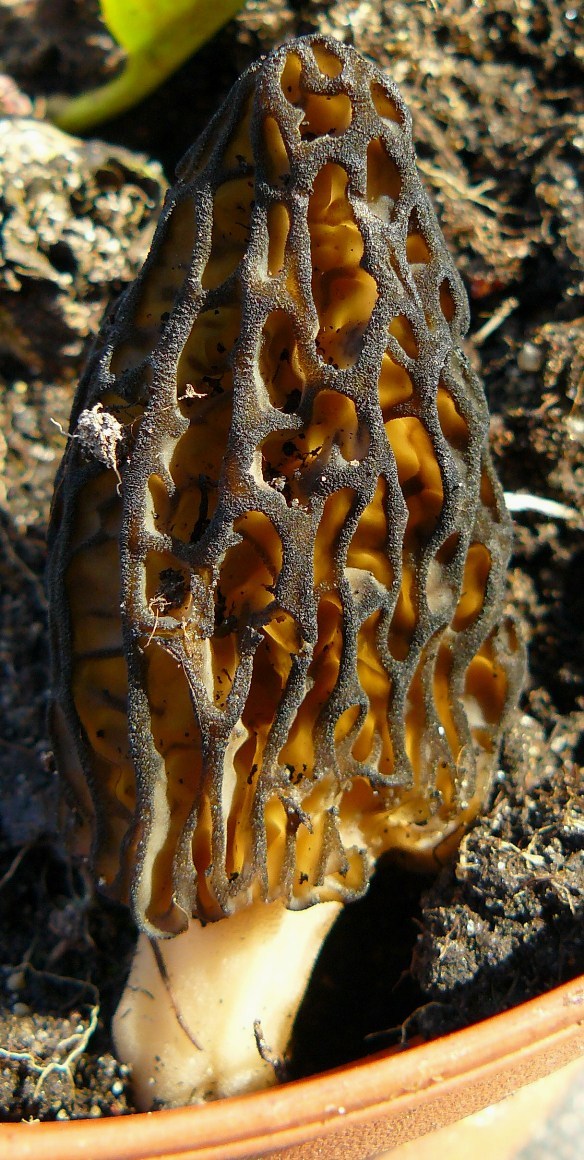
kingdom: Fungi
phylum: Ascomycota
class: Pezizomycetes
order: Pezizales
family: Morchellaceae
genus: Morchella
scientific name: Morchella esculenta
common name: Morel
